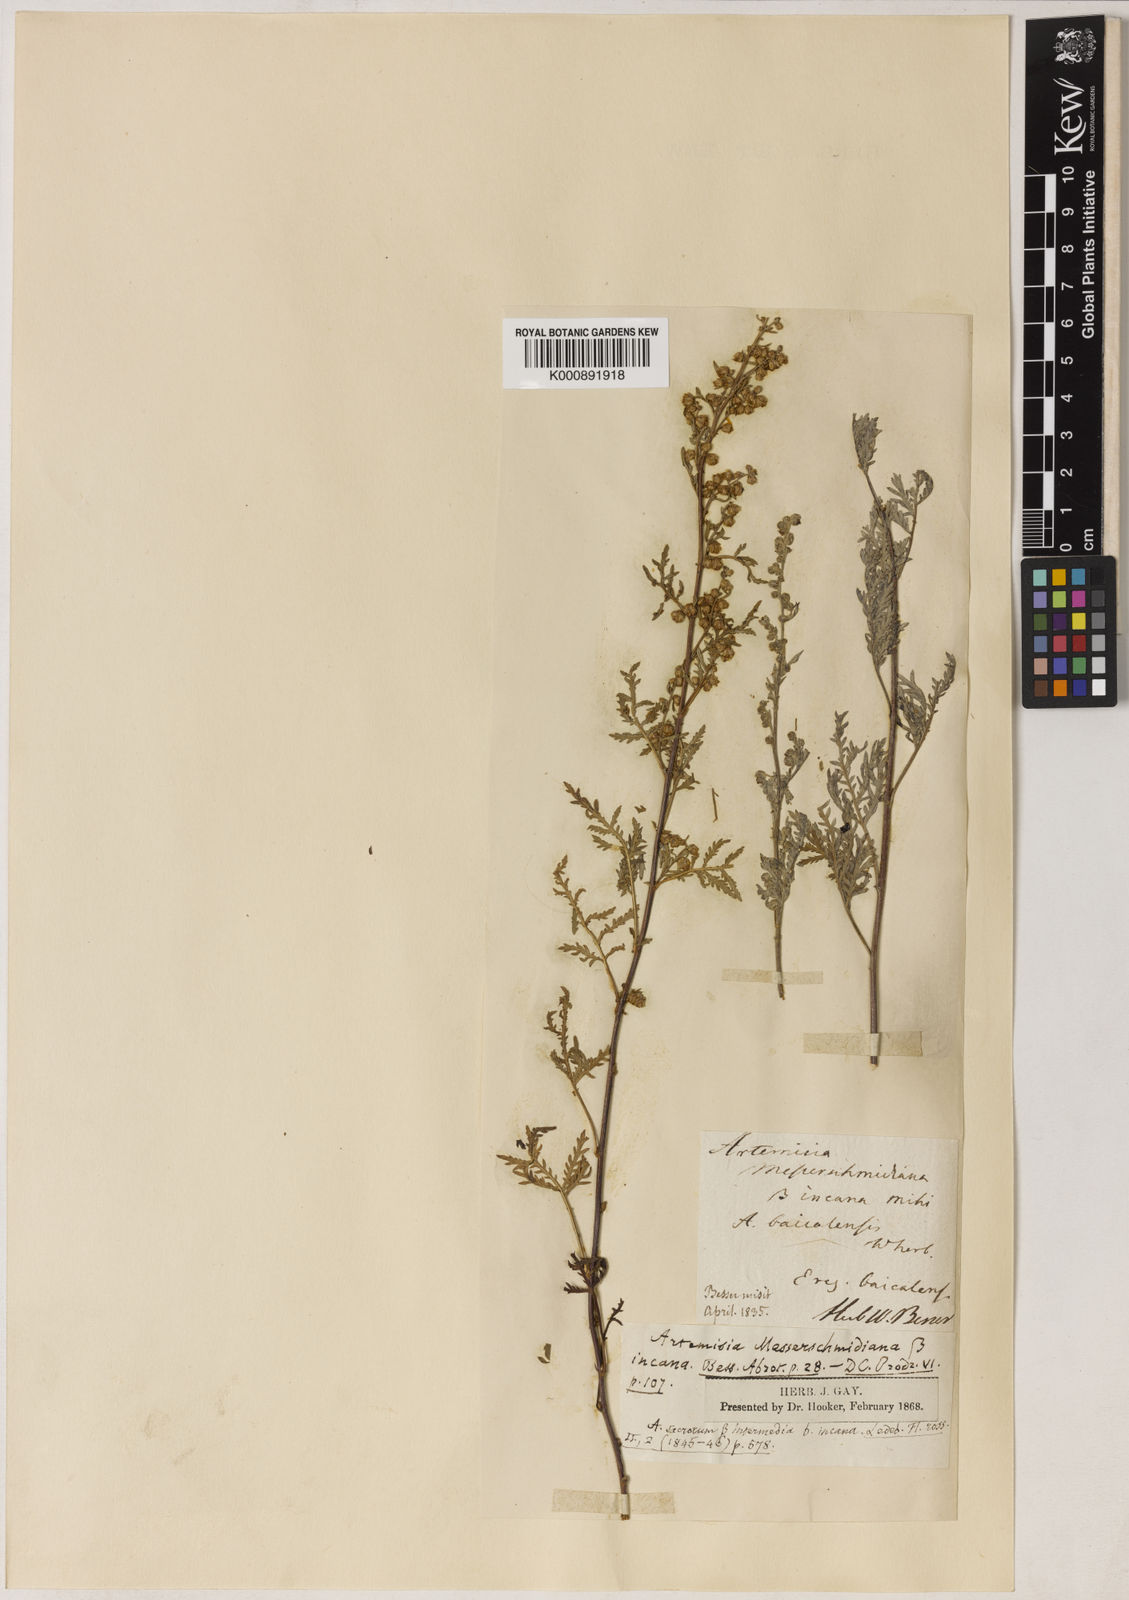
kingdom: Plantae
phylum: Tracheophyta
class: Magnoliopsida
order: Asterales
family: Asteraceae
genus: Artemisia
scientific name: Artemisia gmelinii
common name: Gmelin's wormwood
